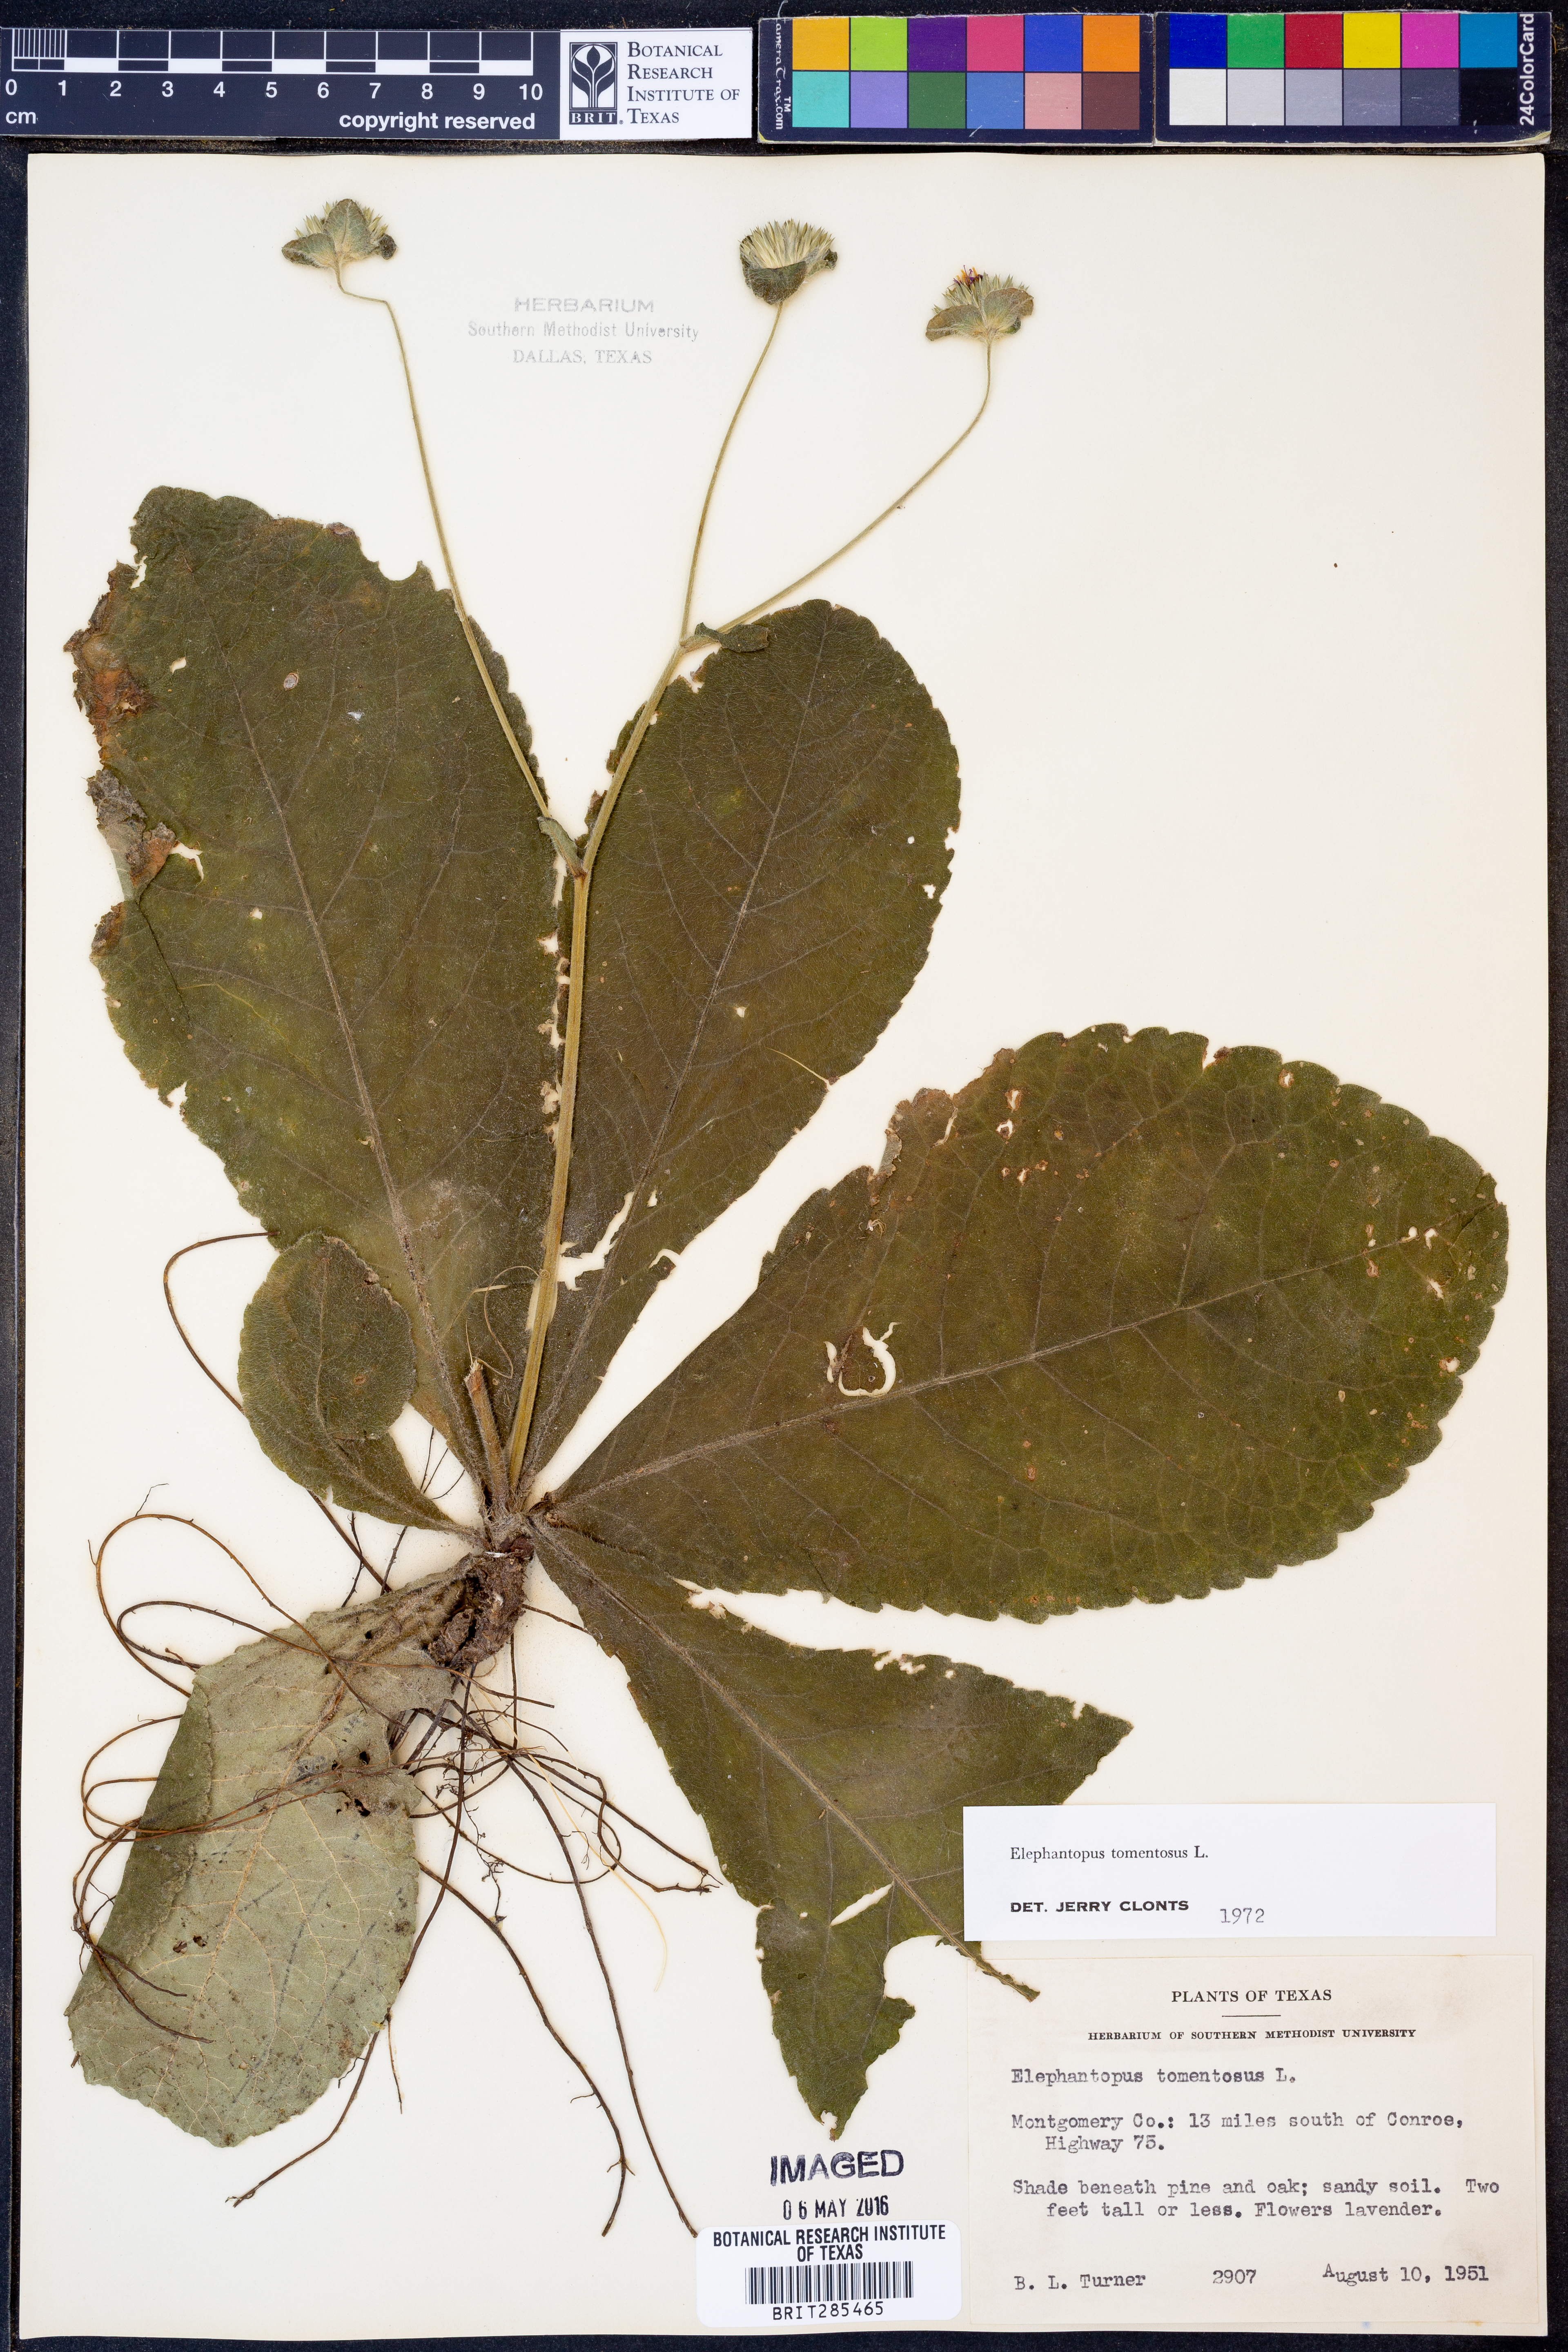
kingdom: Plantae
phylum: Tracheophyta
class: Magnoliopsida
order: Asterales
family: Asteraceae
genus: Elephantopus
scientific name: Elephantopus tomentosus
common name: Tobacco-weed
